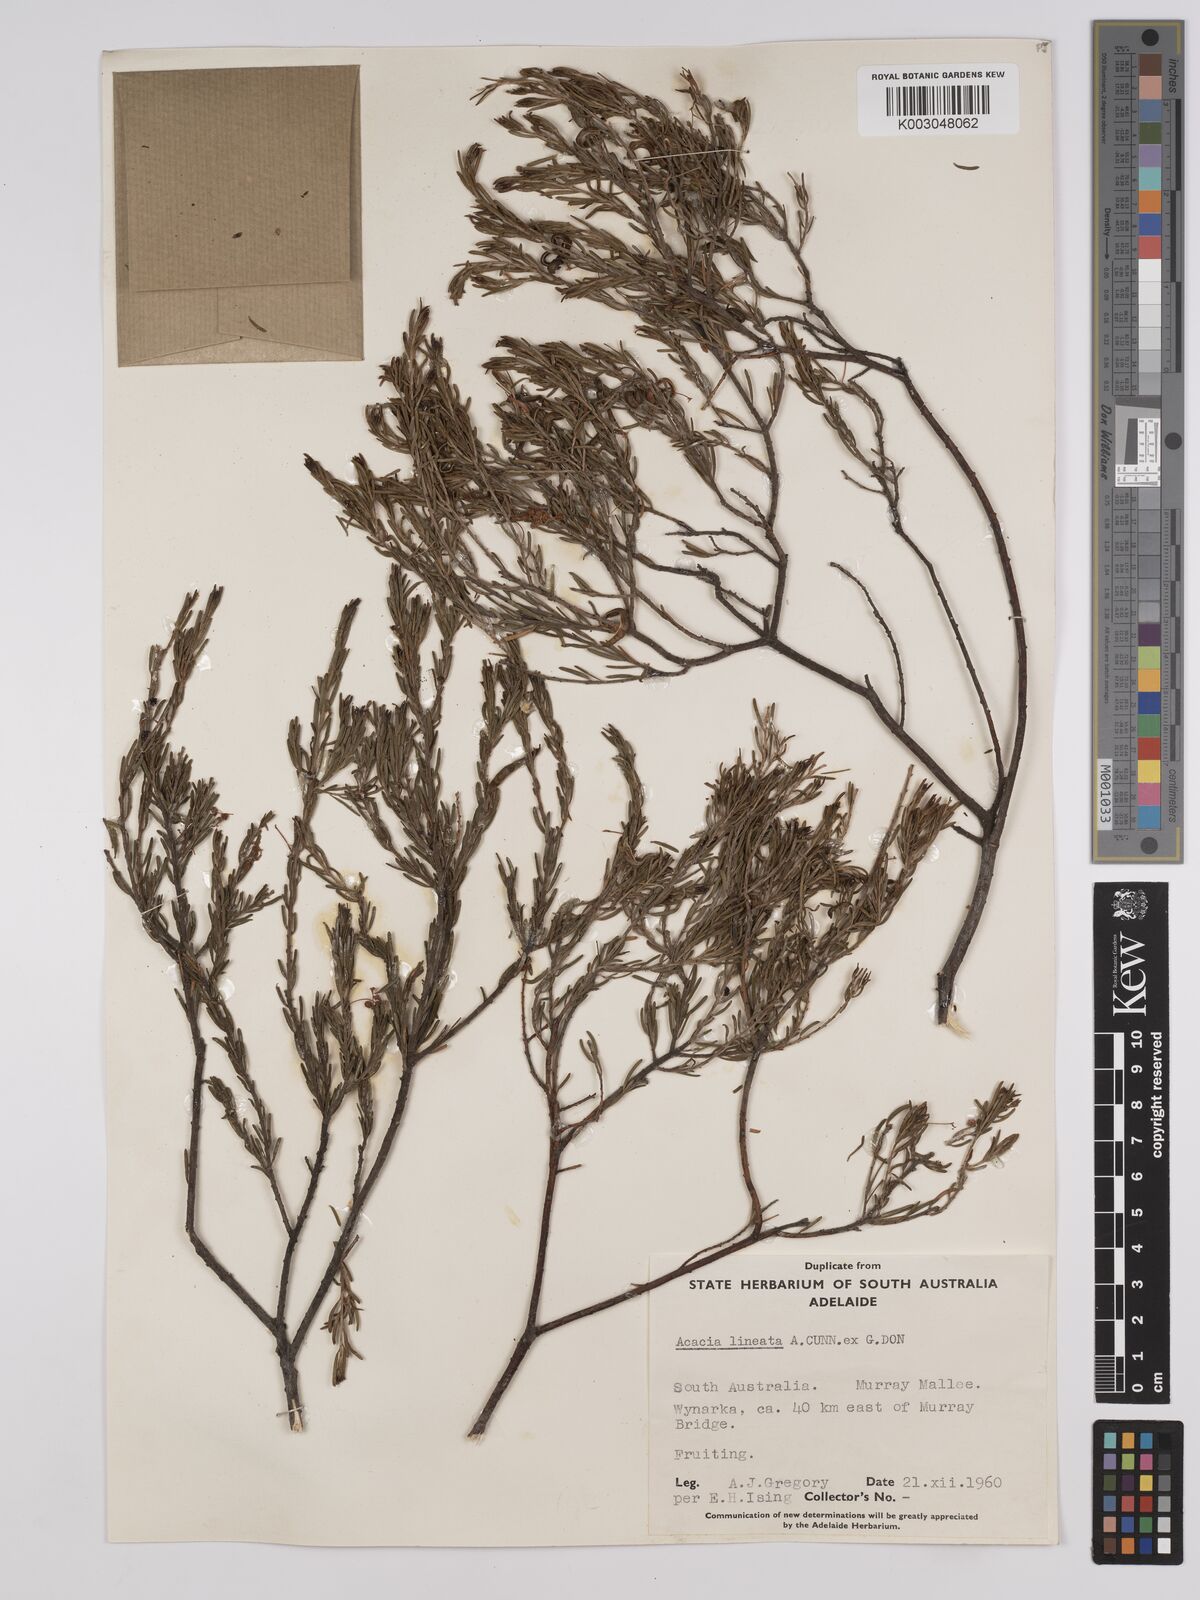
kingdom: Plantae
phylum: Tracheophyta
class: Magnoliopsida
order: Fabales
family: Fabaceae
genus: Acacia
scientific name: Acacia lineata
